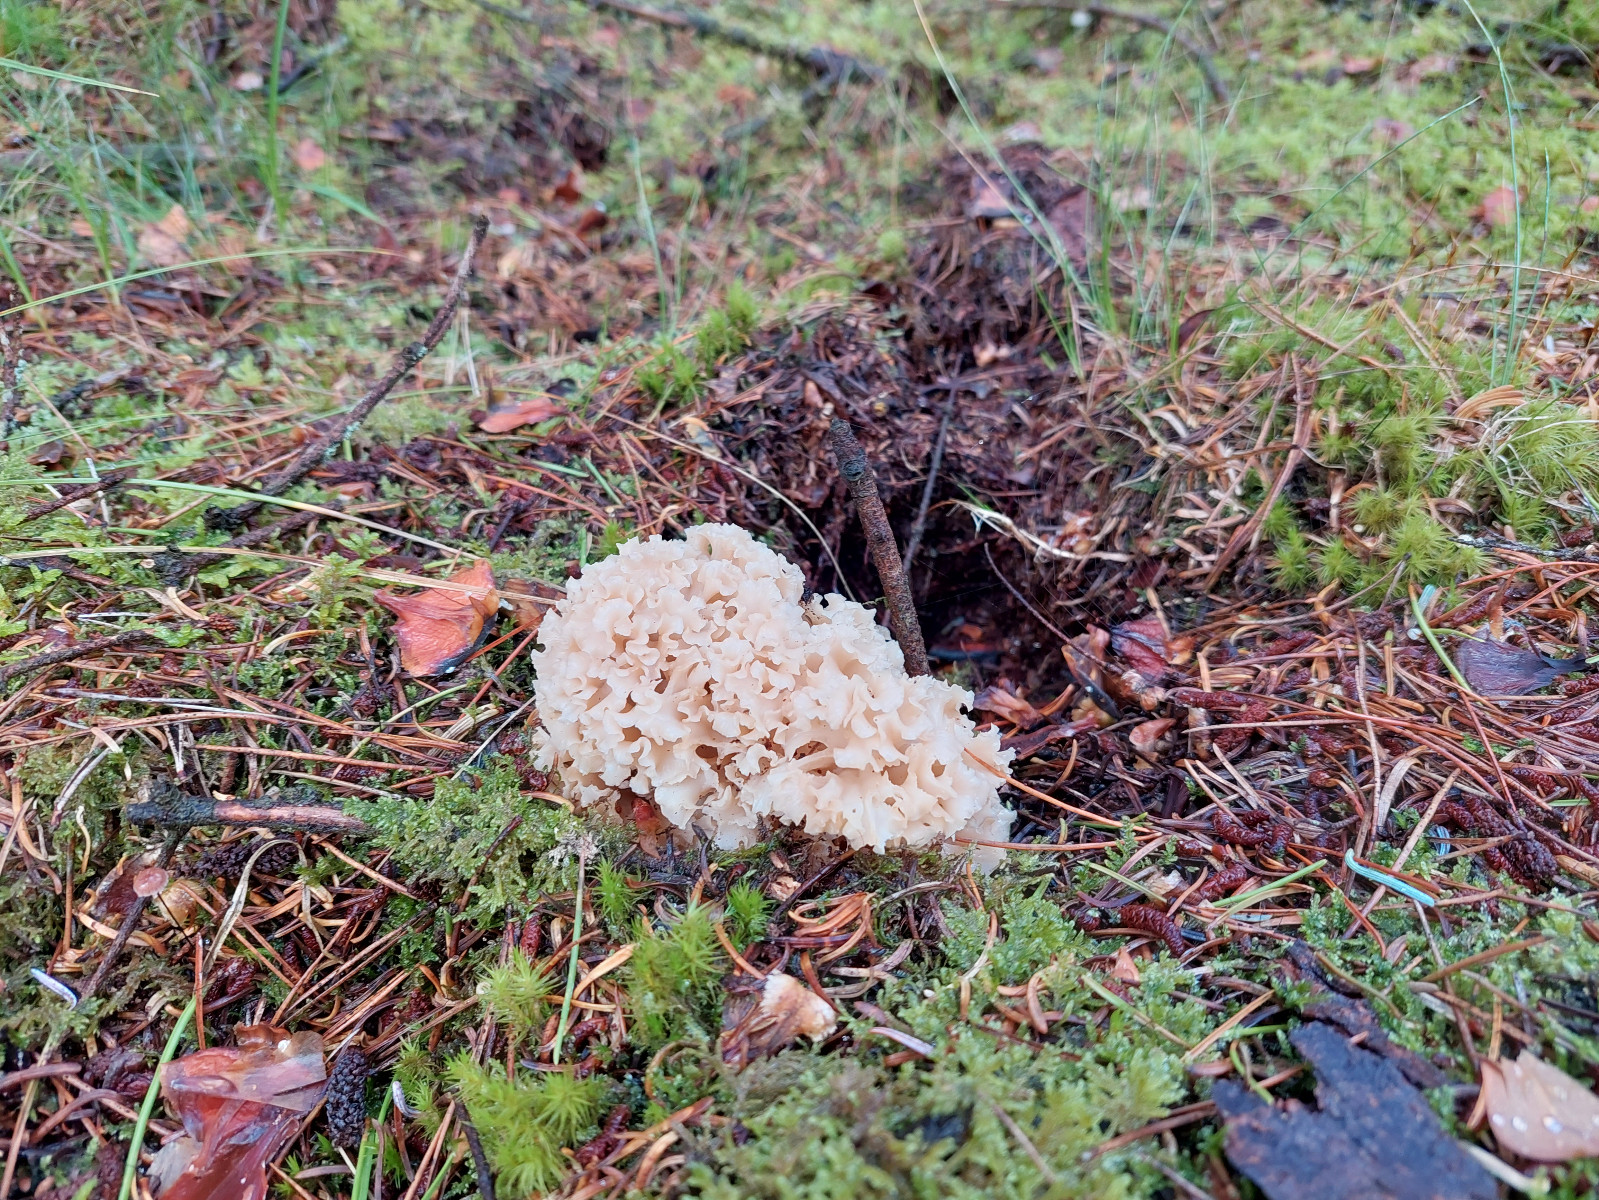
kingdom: Fungi
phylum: Basidiomycota
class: Agaricomycetes
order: Polyporales
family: Sparassidaceae
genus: Sparassis
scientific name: Sparassis crispa
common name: kruset blomkålssvamp
